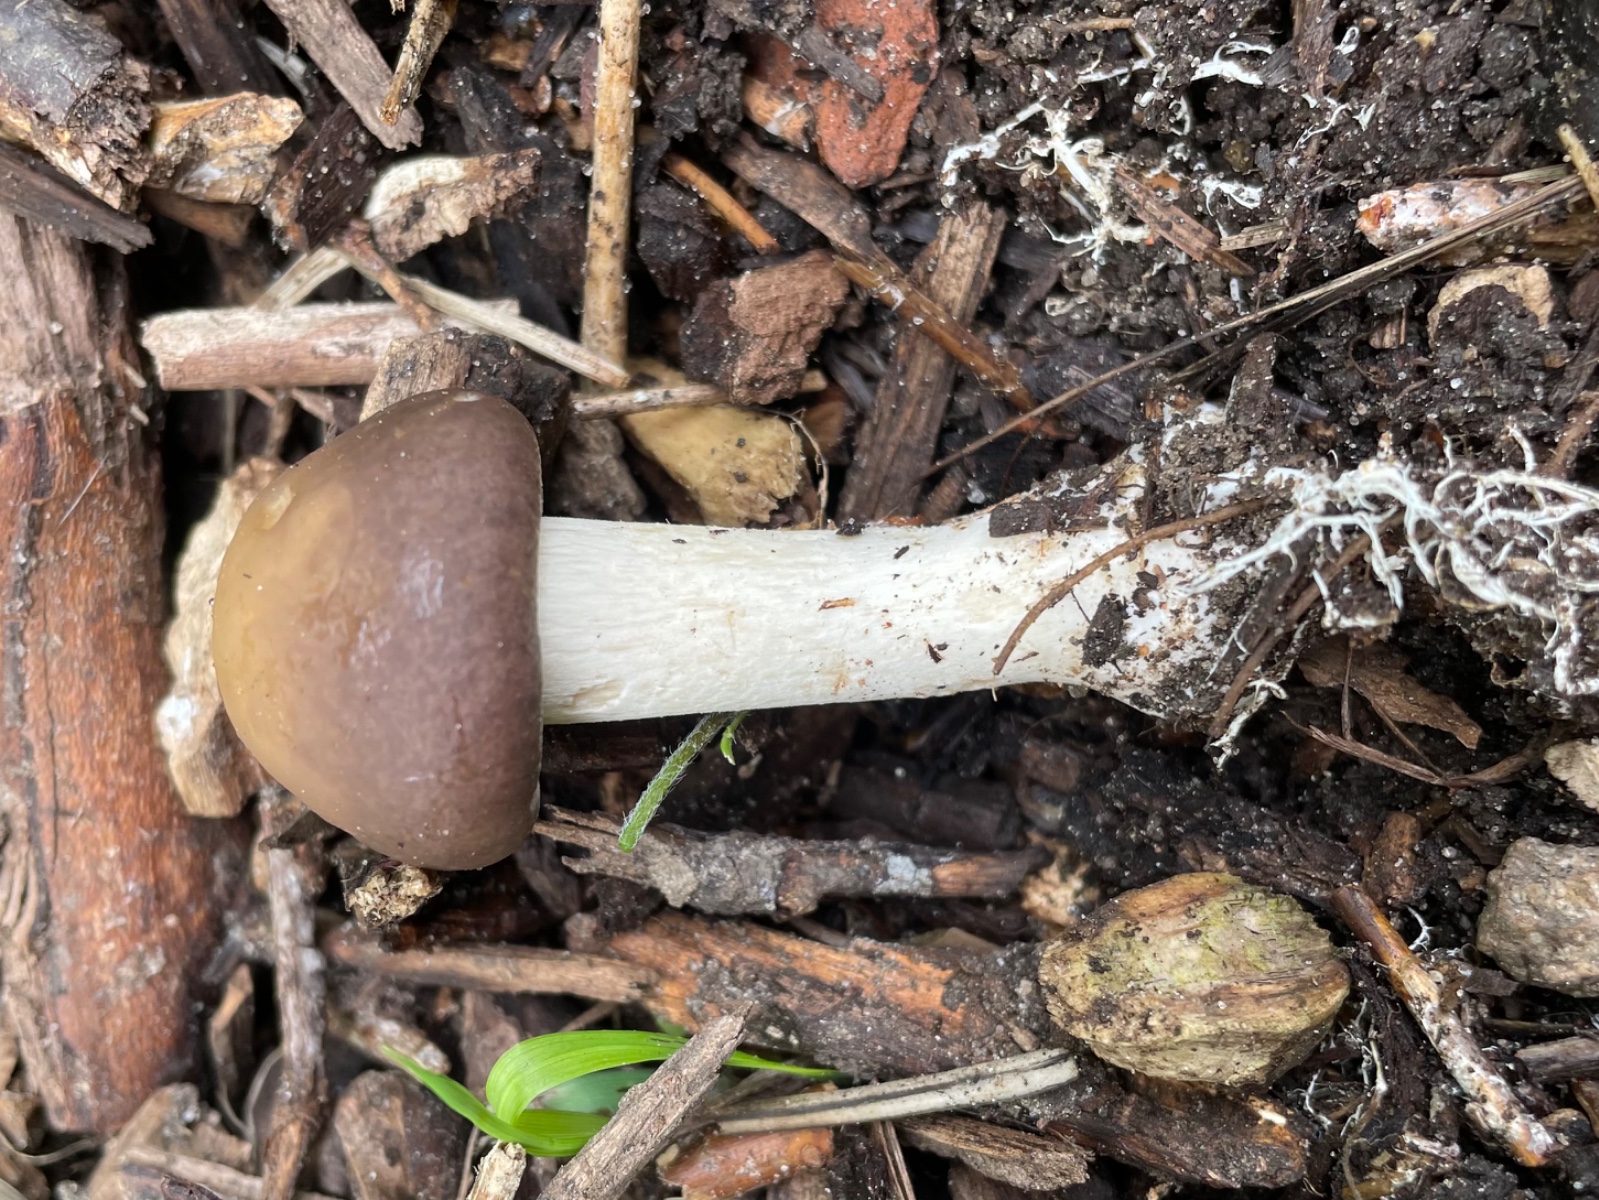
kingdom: Fungi
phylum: Basidiomycota
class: Agaricomycetes
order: Agaricales
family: Strophariaceae
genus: Agrocybe
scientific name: Agrocybe praecox
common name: tidlig agerhat
